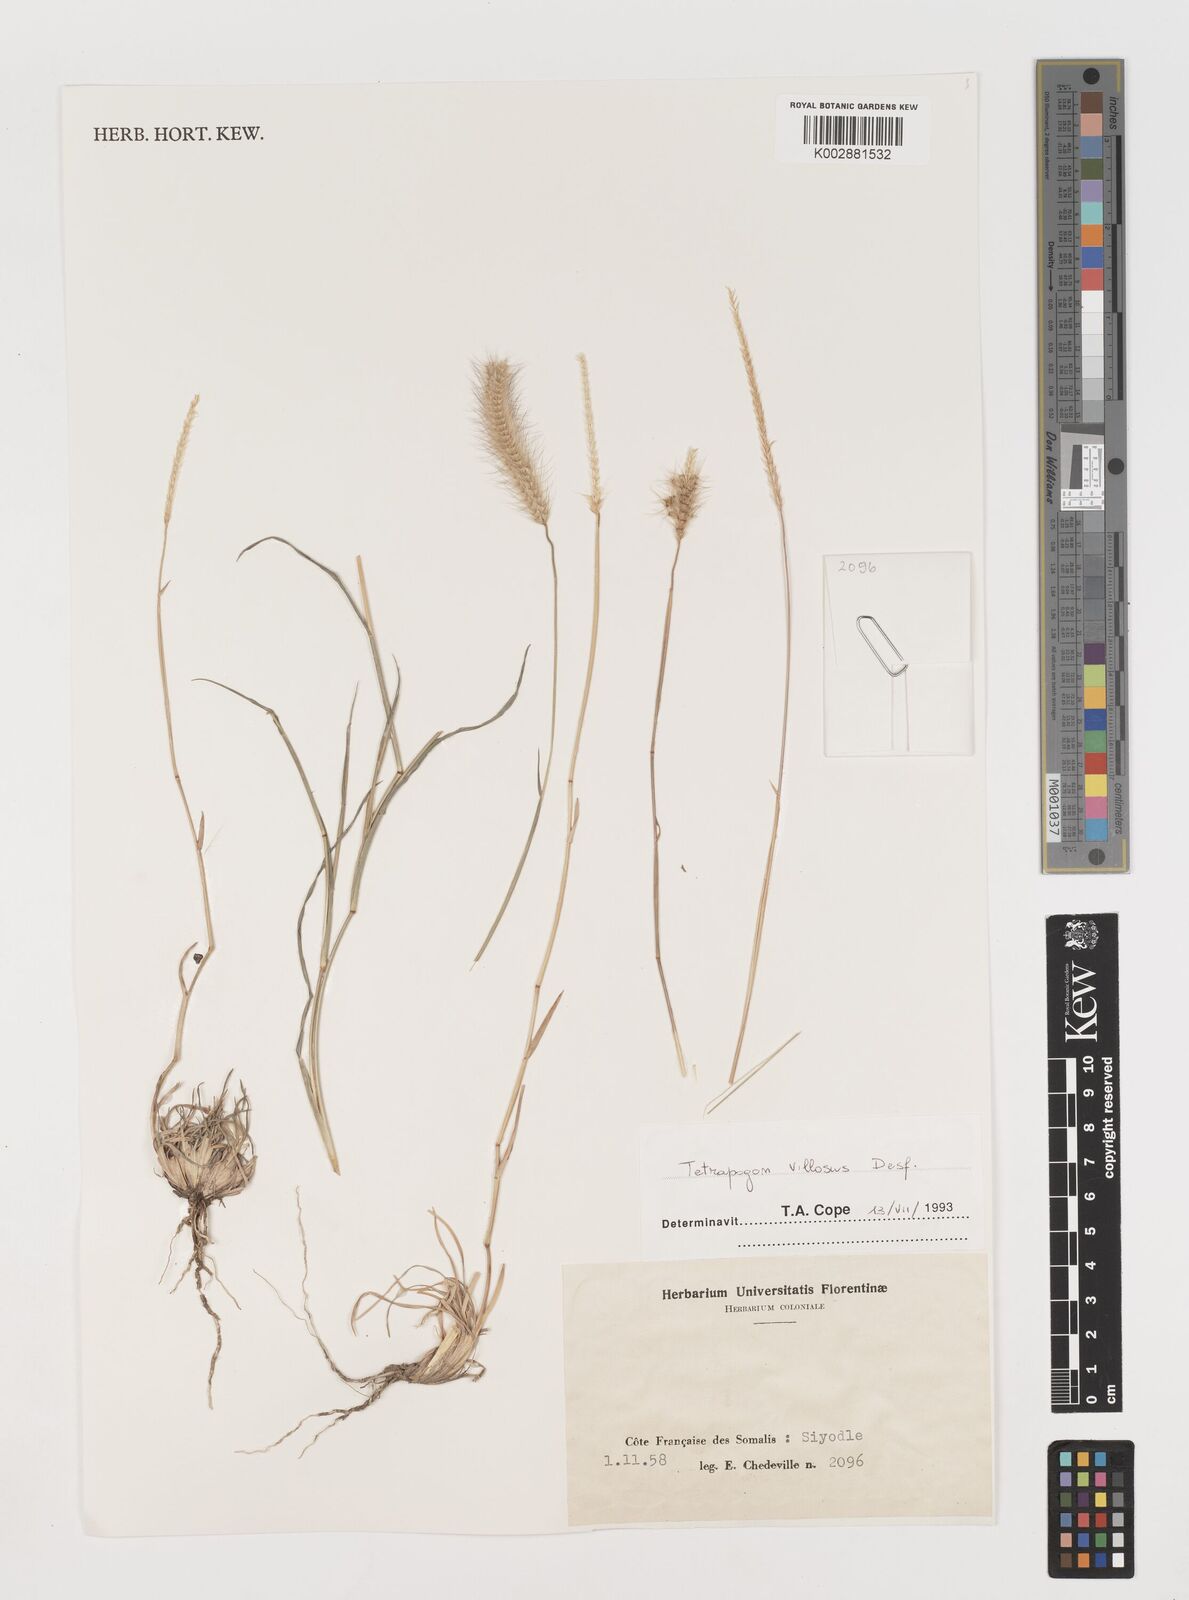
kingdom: Plantae
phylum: Tracheophyta
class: Liliopsida
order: Poales
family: Poaceae
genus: Tetrapogon
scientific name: Tetrapogon villosus
